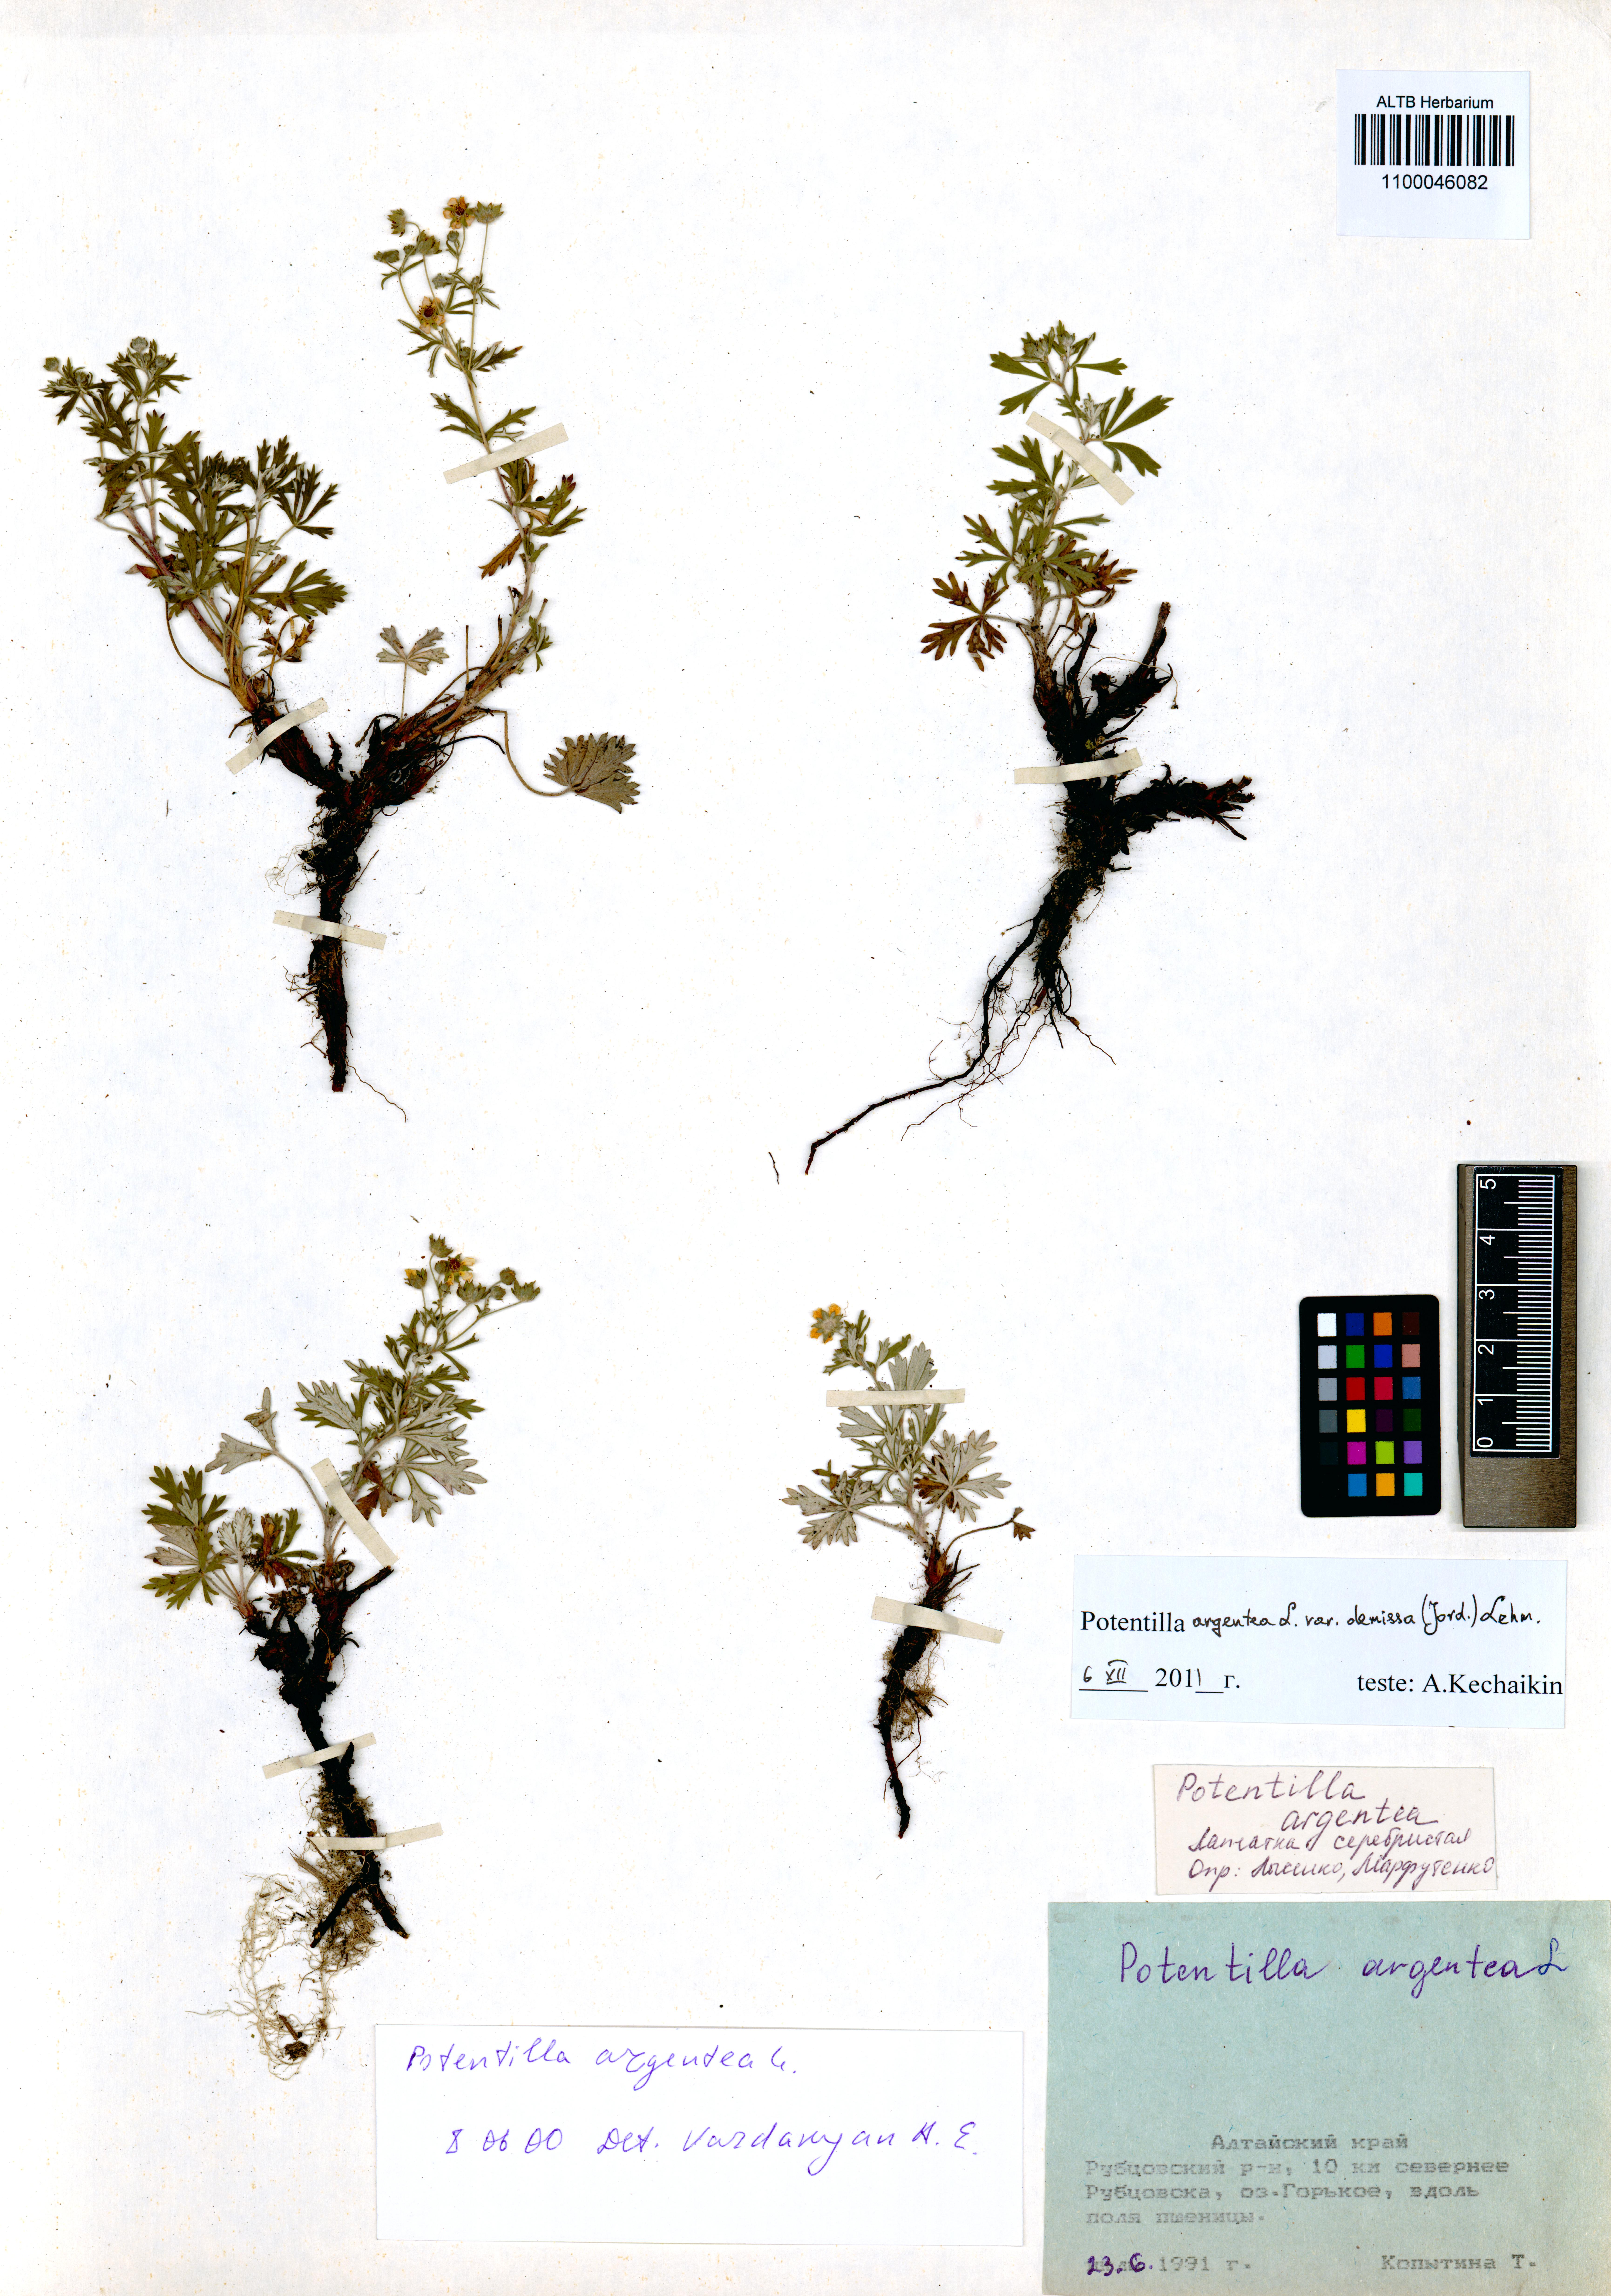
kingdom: Plantae
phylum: Tracheophyta
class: Magnoliopsida
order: Rosales
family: Rosaceae
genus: Potentilla
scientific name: Potentilla argentea
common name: Hoary cinquefoil
